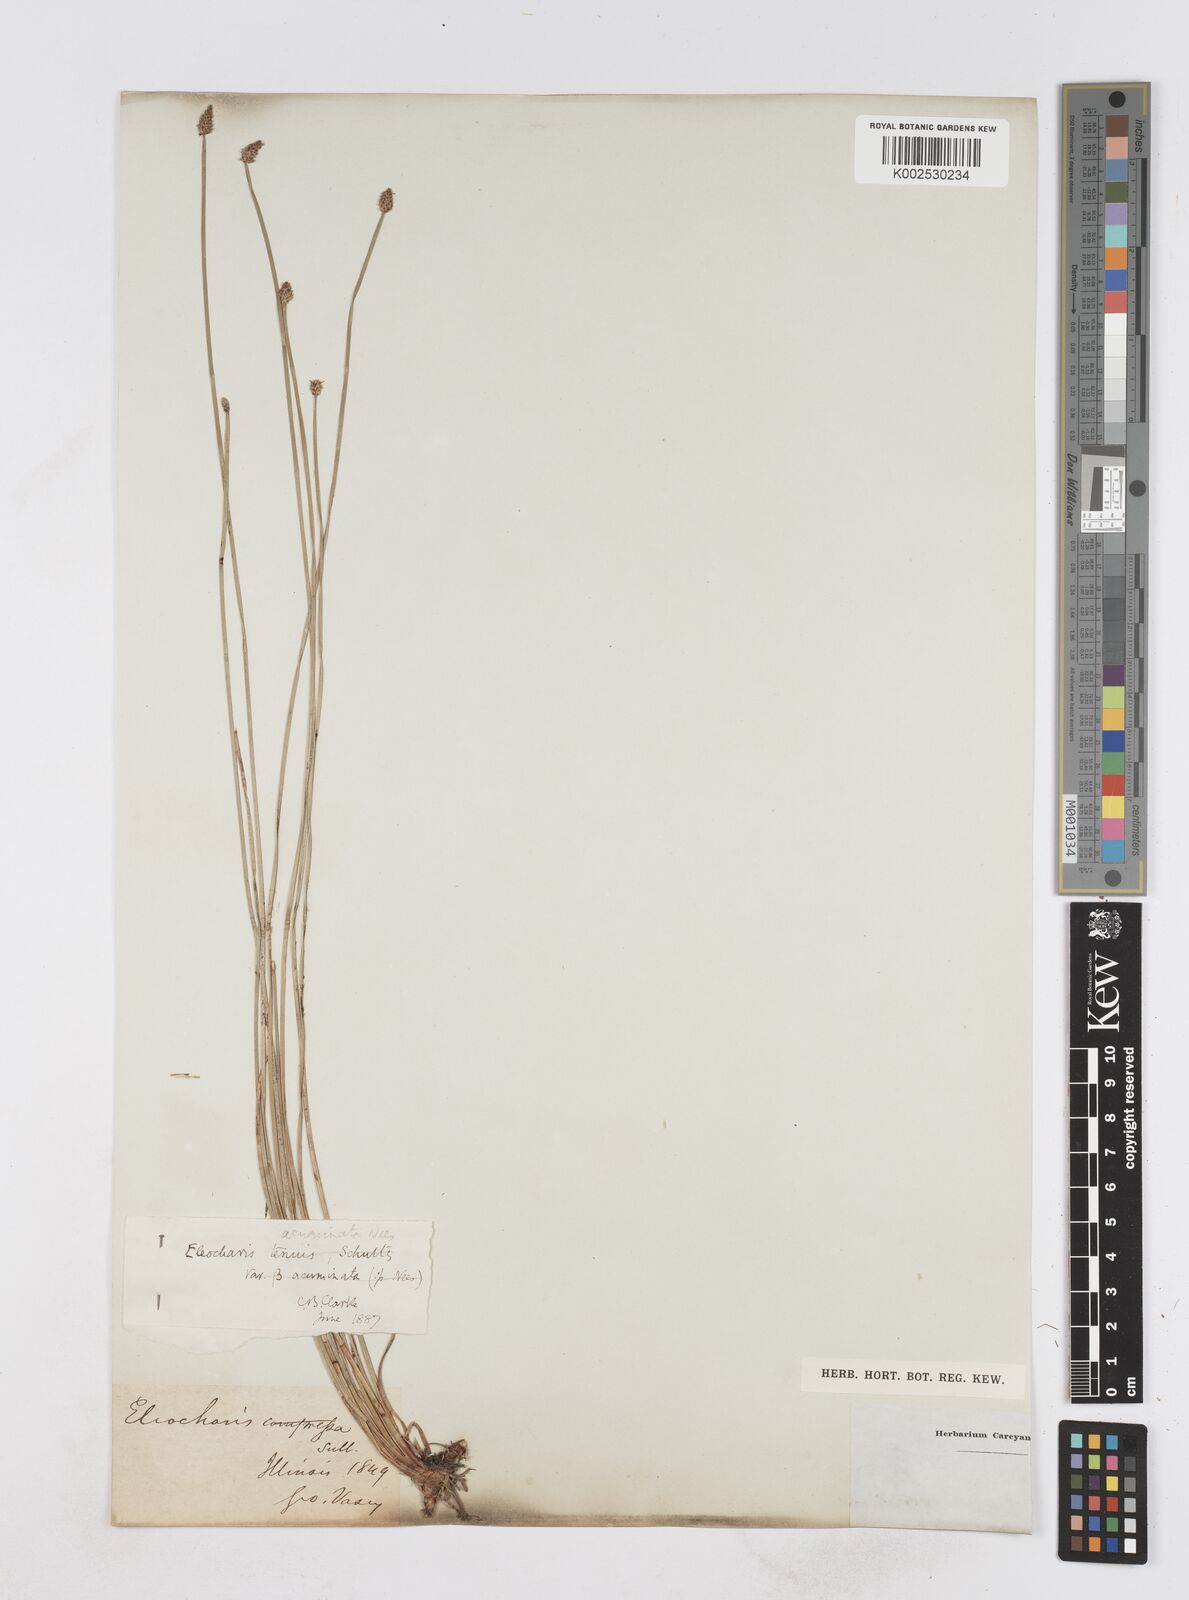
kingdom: Plantae
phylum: Tracheophyta
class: Liliopsida
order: Poales
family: Cyperaceae
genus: Eleocharis
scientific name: Eleocharis compressa
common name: Flat-stem spike-rush
